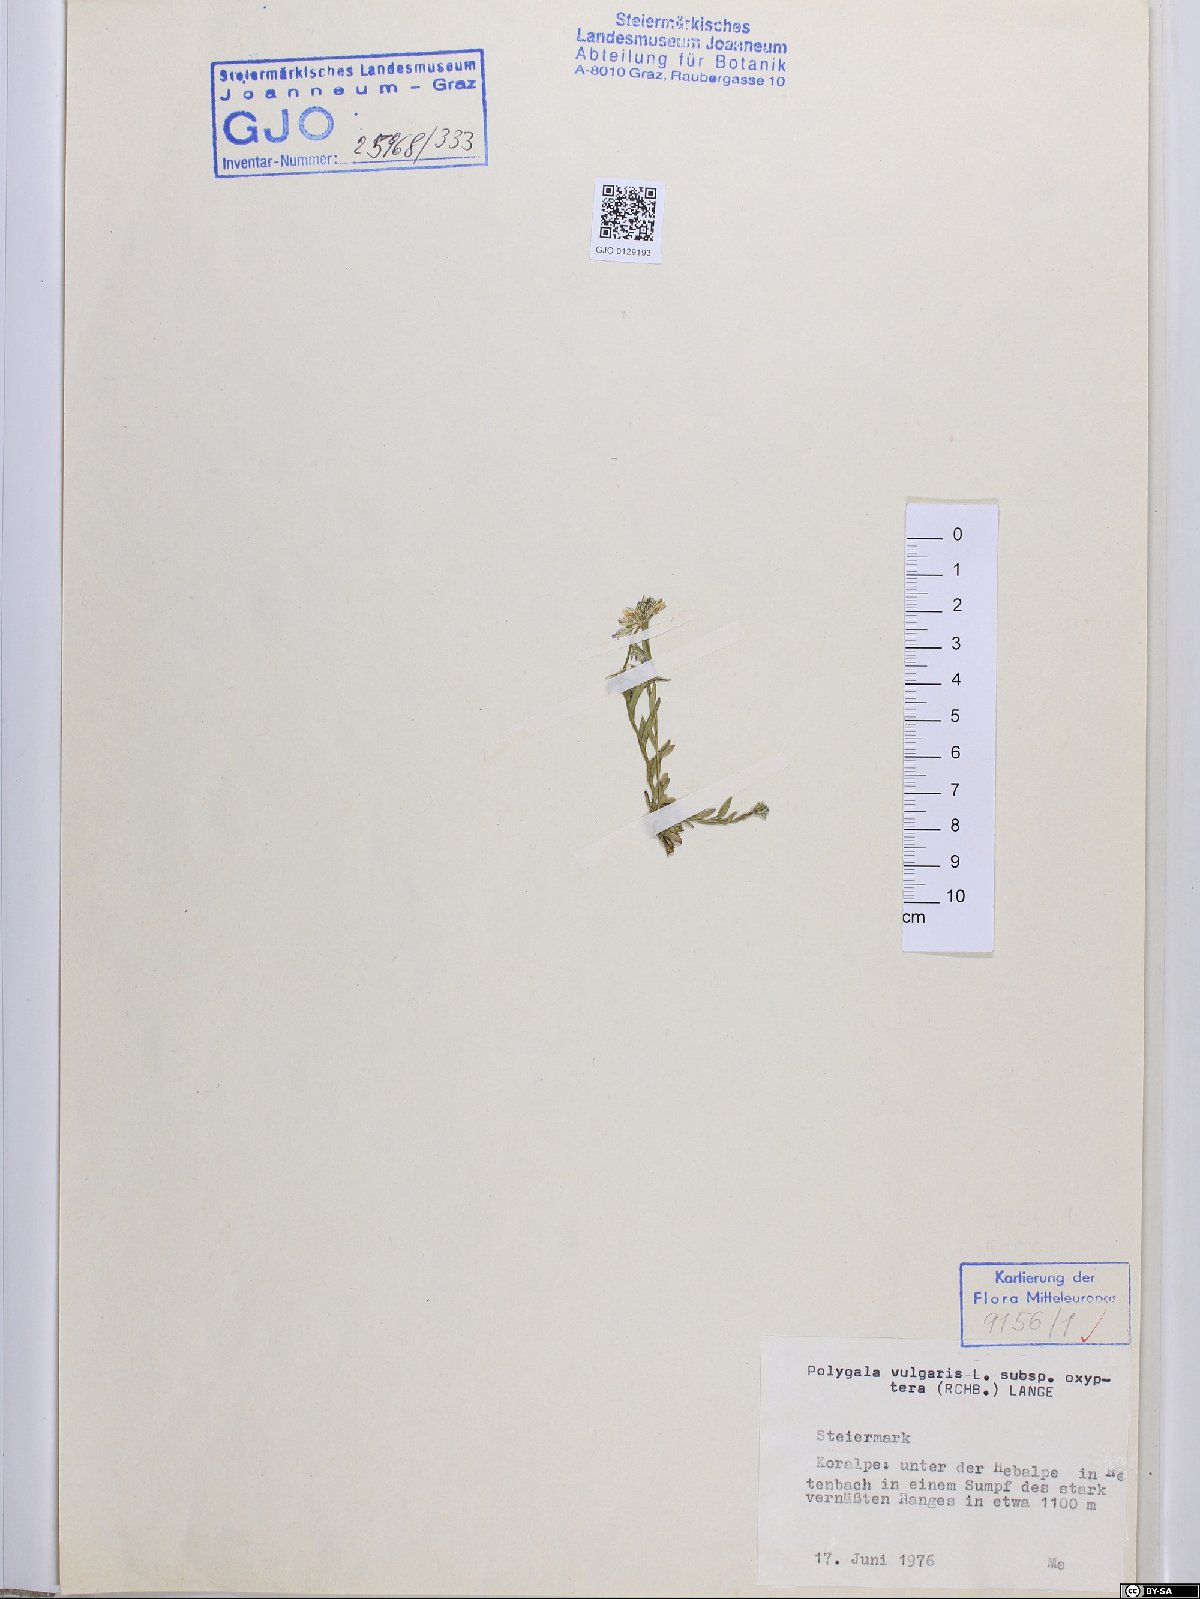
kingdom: Plantae
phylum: Tracheophyta
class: Magnoliopsida
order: Fabales
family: Polygalaceae
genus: Polygala
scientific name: Polygala vulgaris
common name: Common milkwort
